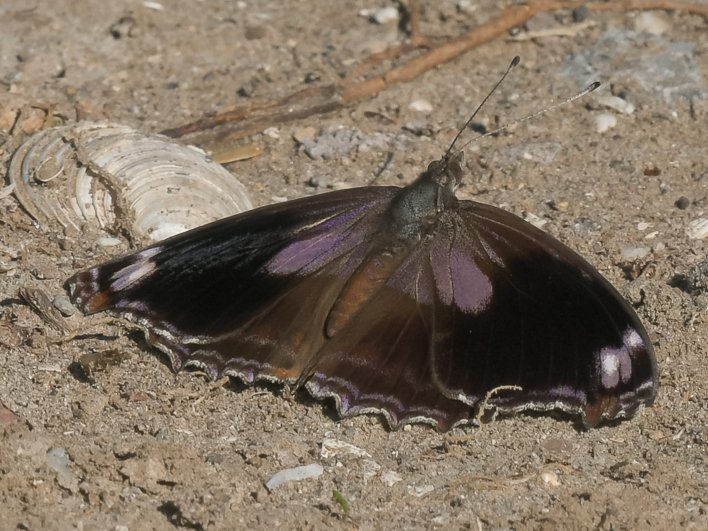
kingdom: Animalia
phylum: Arthropoda
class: Insecta
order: Lepidoptera
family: Nymphalidae
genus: Myscelia
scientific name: Myscelia cyananthe
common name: Blackened Bluewing
